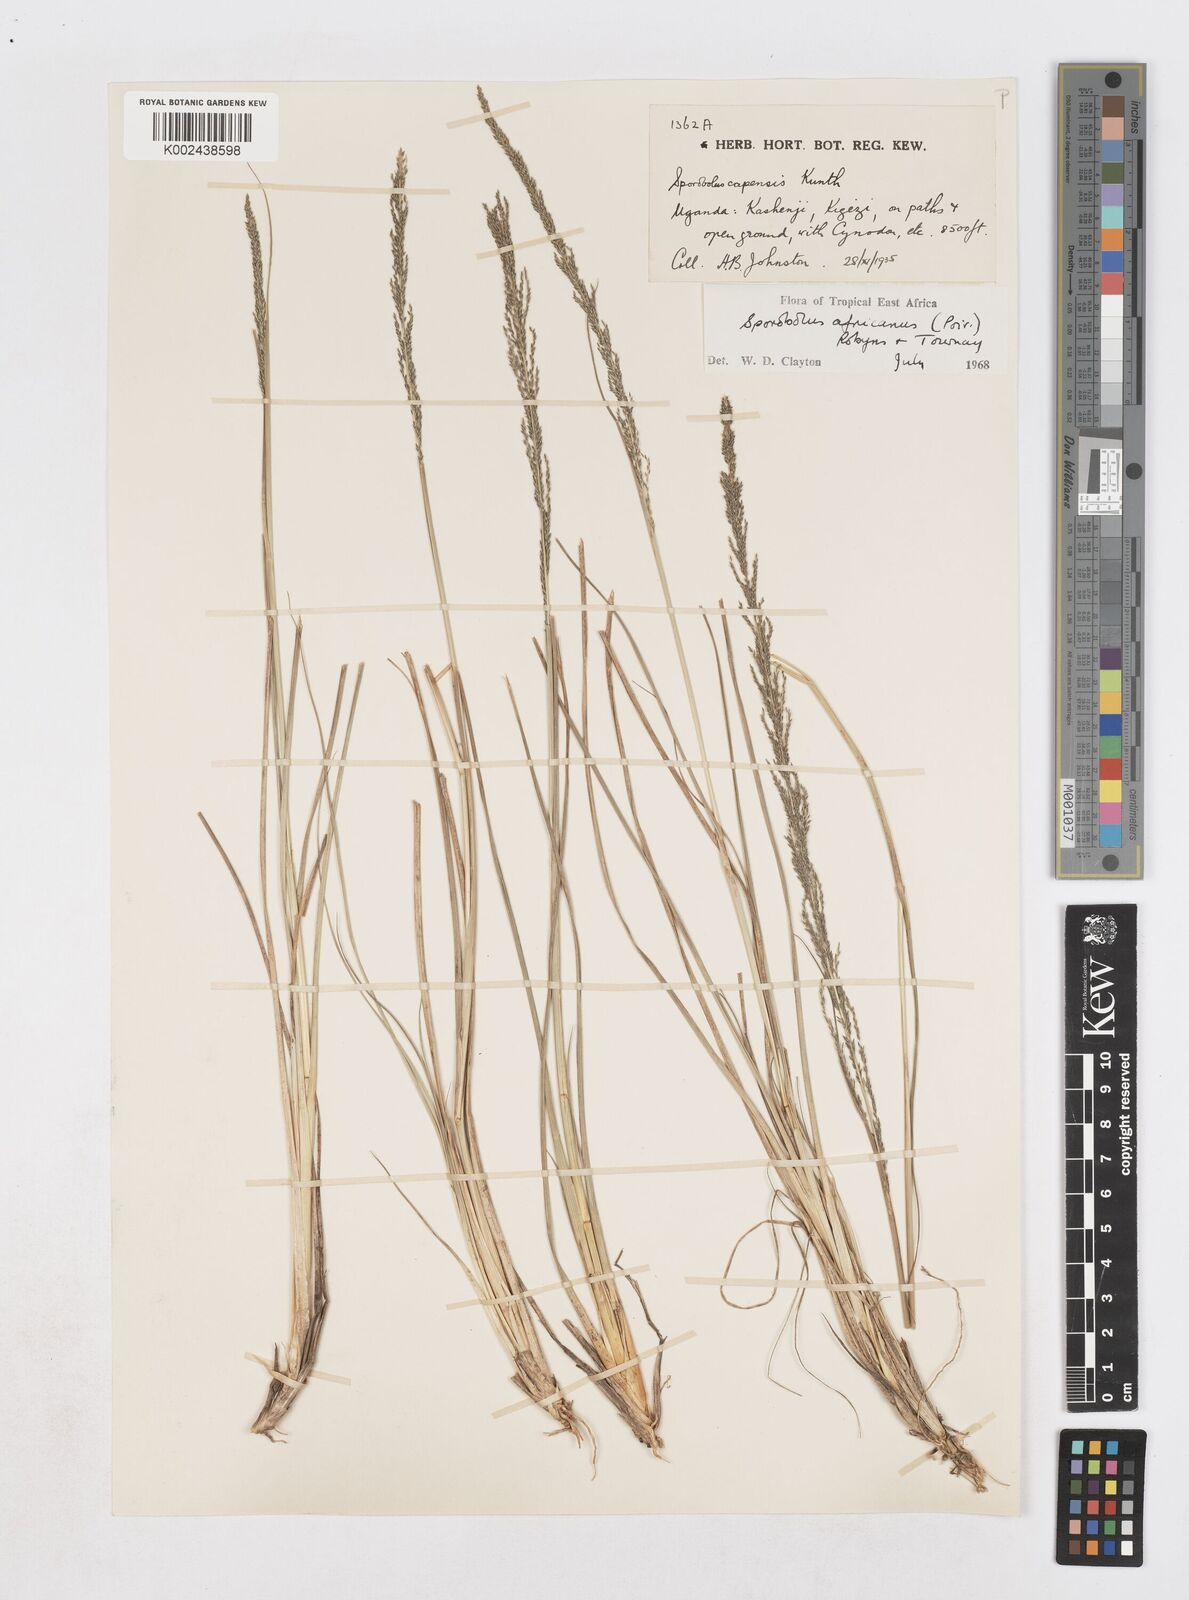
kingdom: Plantae
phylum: Tracheophyta
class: Liliopsida
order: Poales
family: Poaceae
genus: Sporobolus
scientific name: Sporobolus africanus
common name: African dropseed
